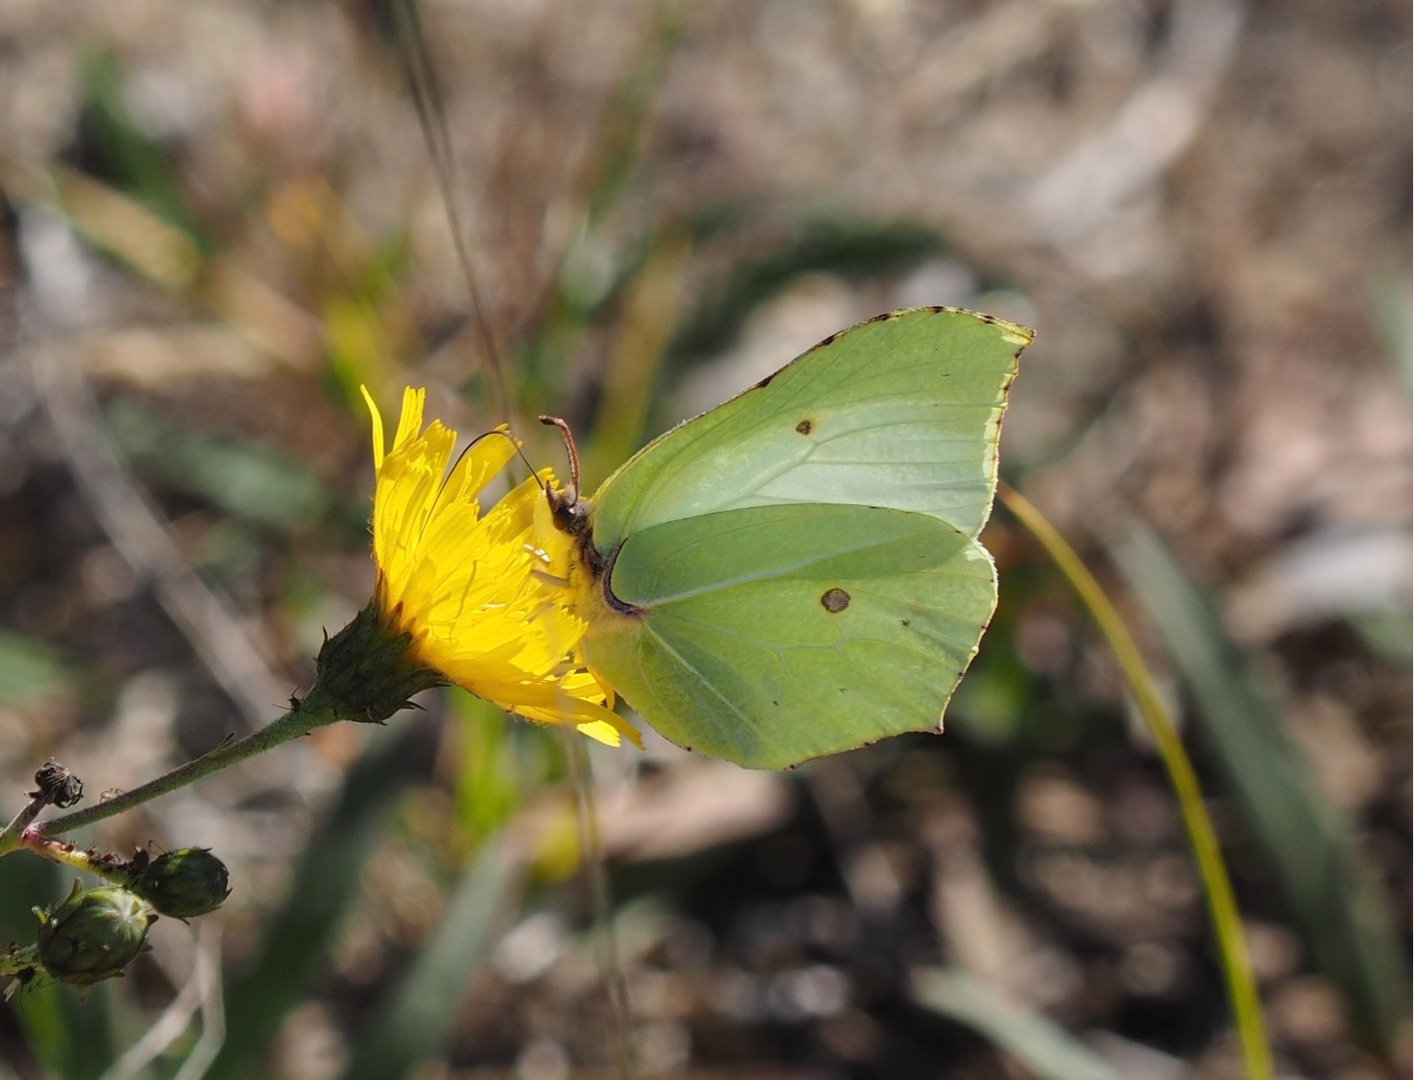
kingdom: Animalia
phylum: Arthropoda
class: Insecta
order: Lepidoptera
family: Pieridae
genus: Gonepteryx
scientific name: Gonepteryx rhamni
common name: Citronsommerfugl
